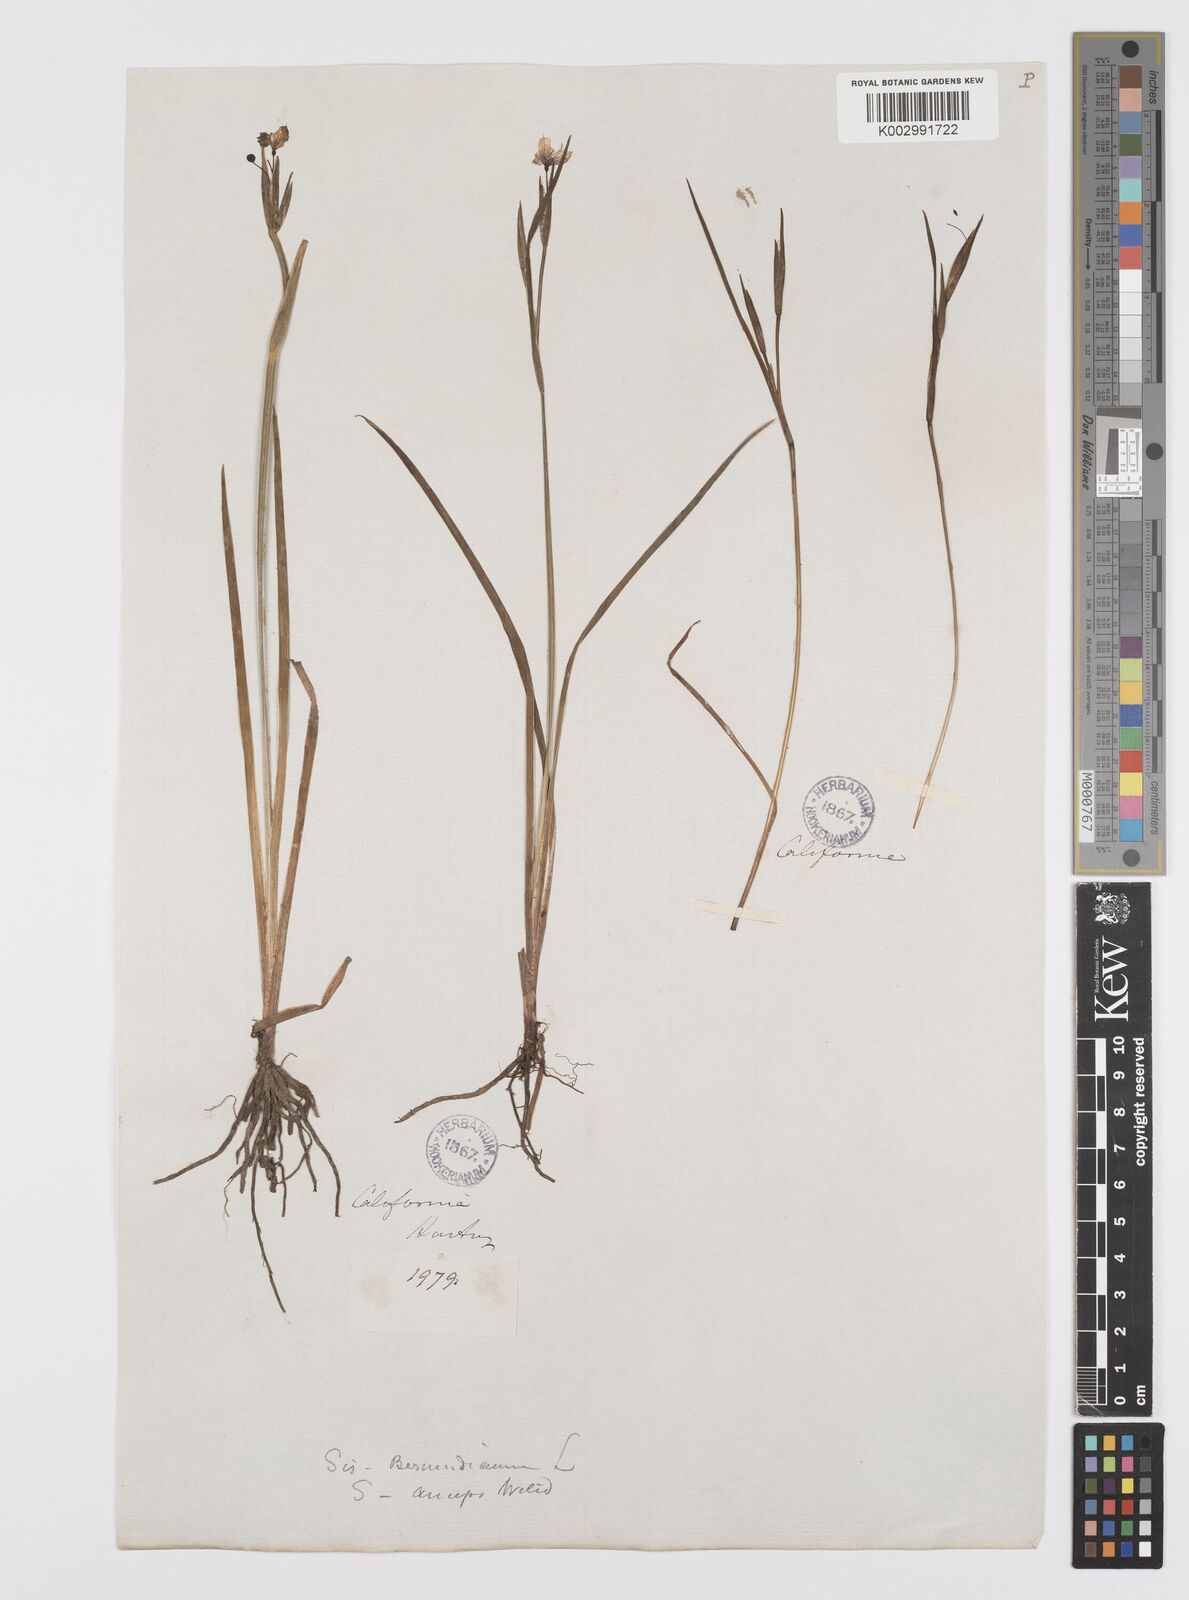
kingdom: Plantae
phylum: Tracheophyta
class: Liliopsida
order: Asparagales
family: Iridaceae
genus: Sisyrinchium
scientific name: Sisyrinchium bellum
